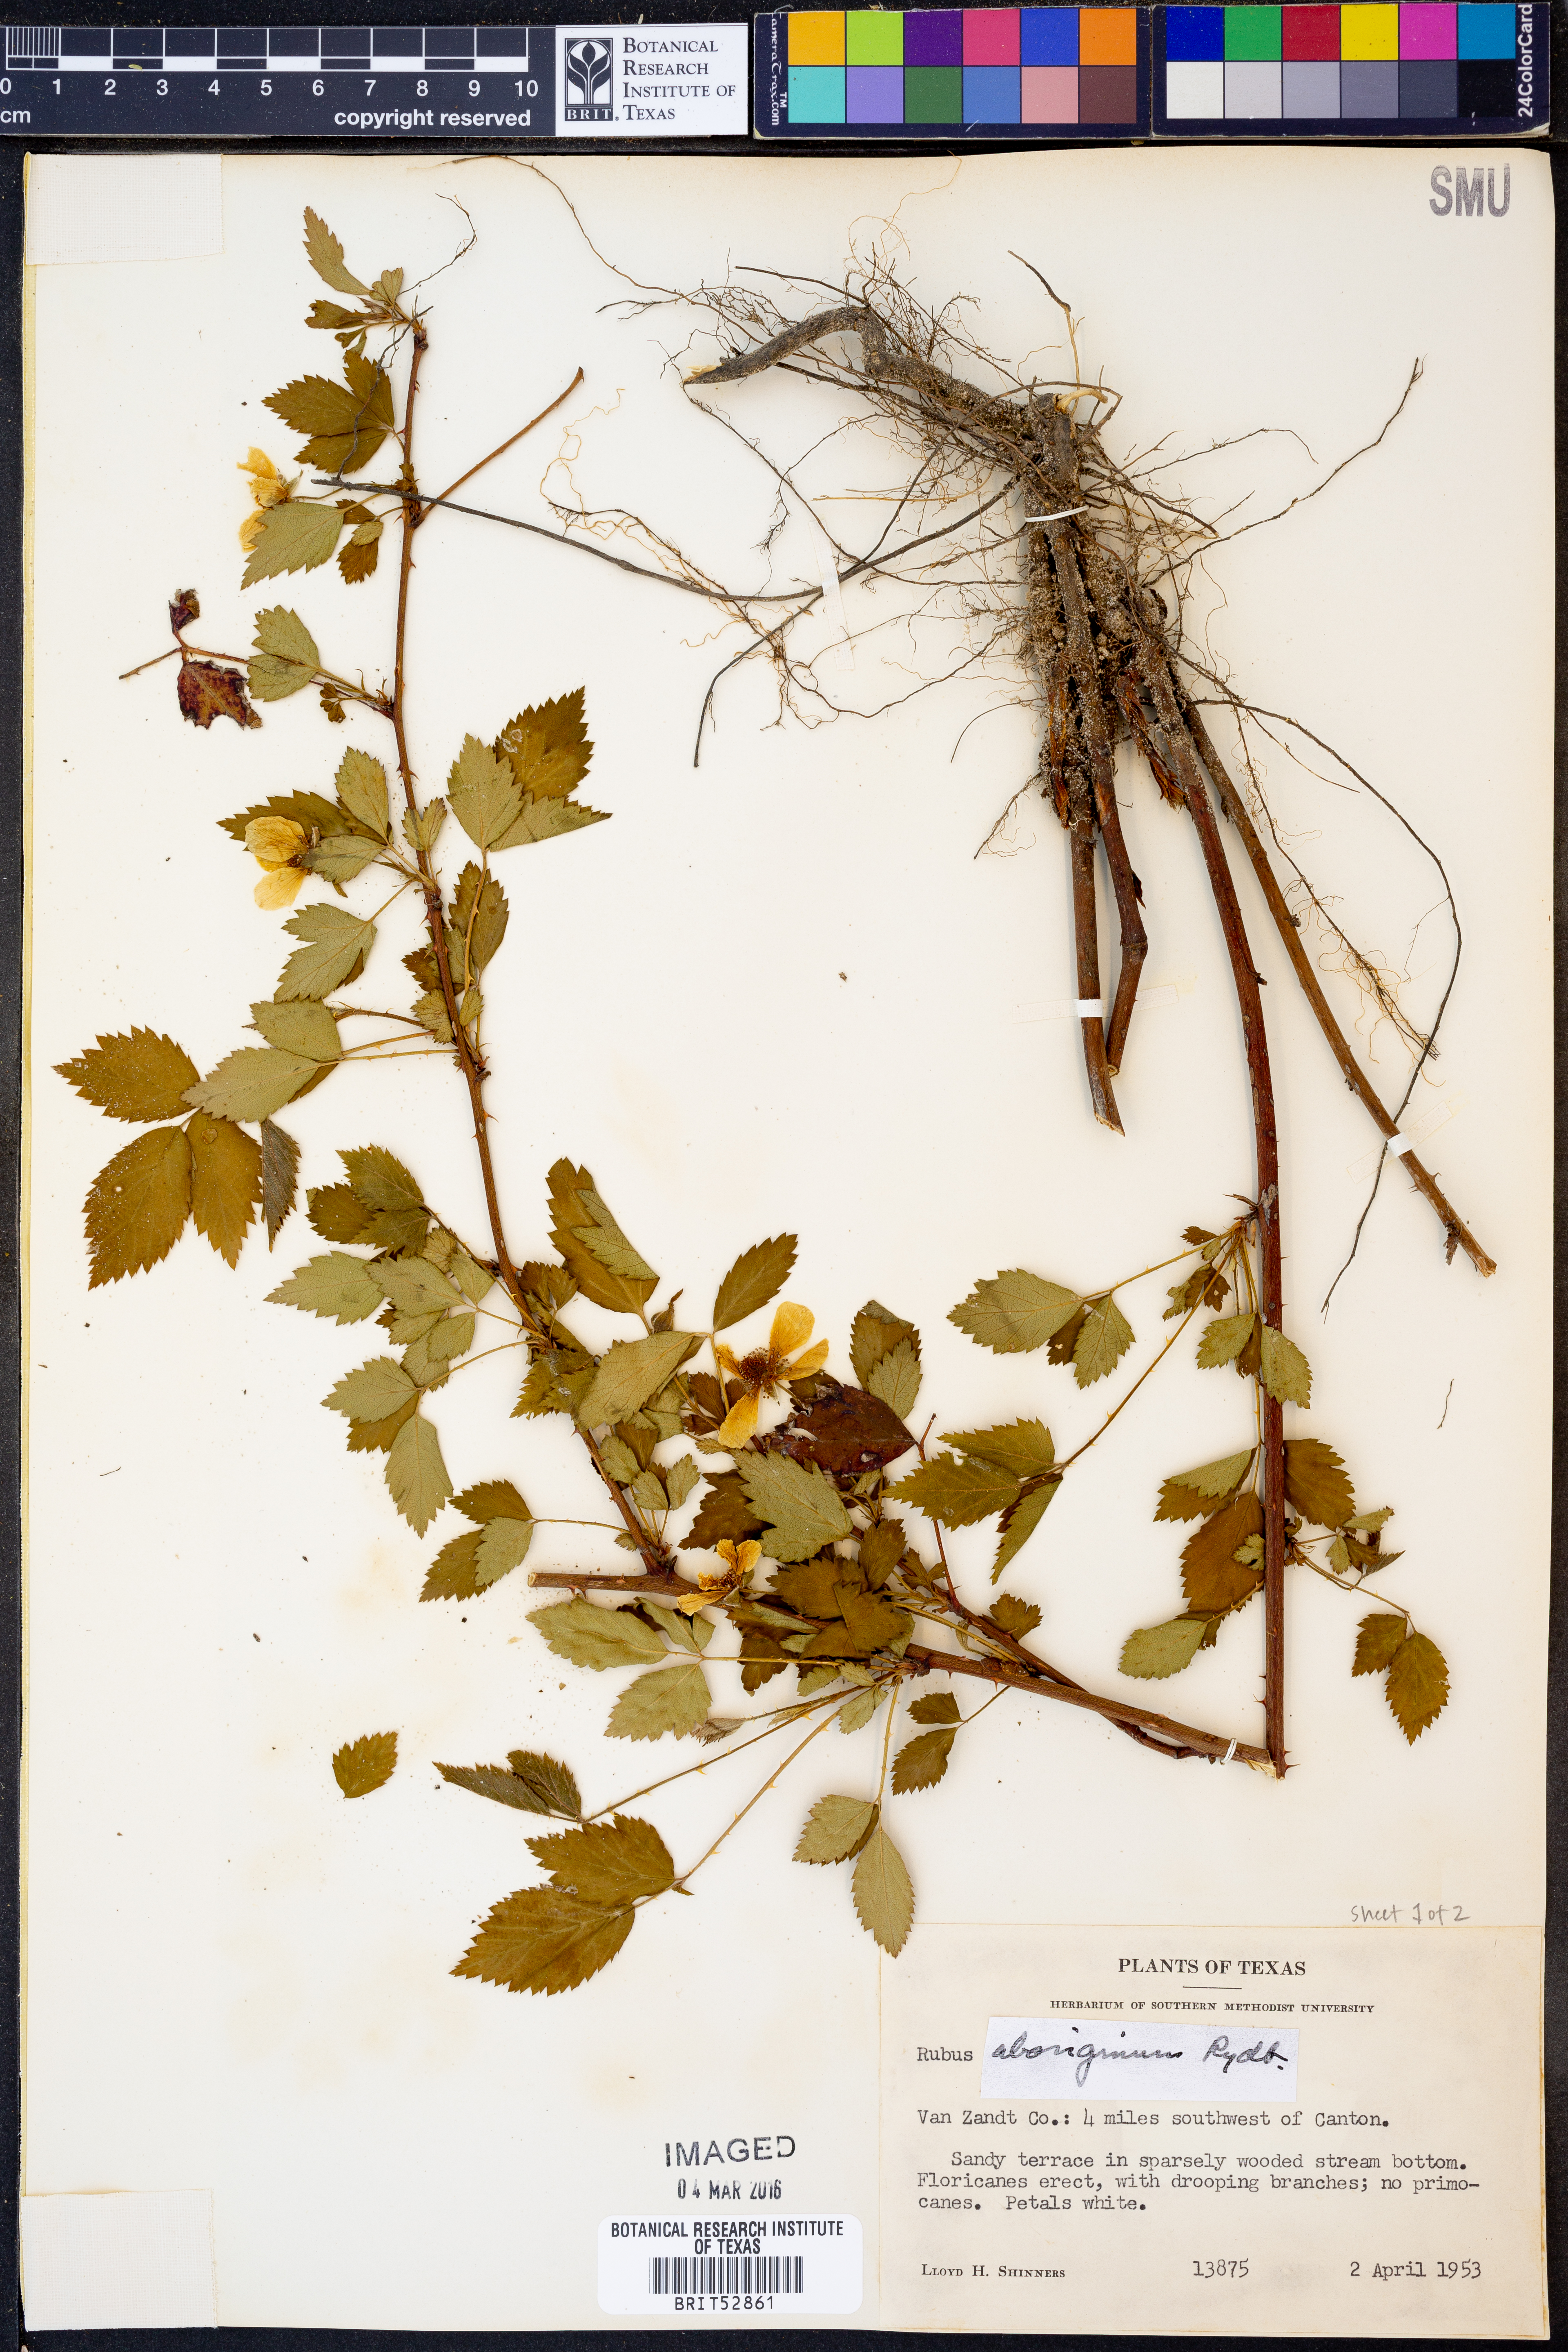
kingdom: Plantae
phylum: Tracheophyta
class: Magnoliopsida
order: Rosales
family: Rosaceae
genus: Rubus
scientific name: Rubus aboriginum
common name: Mayes dewberry
